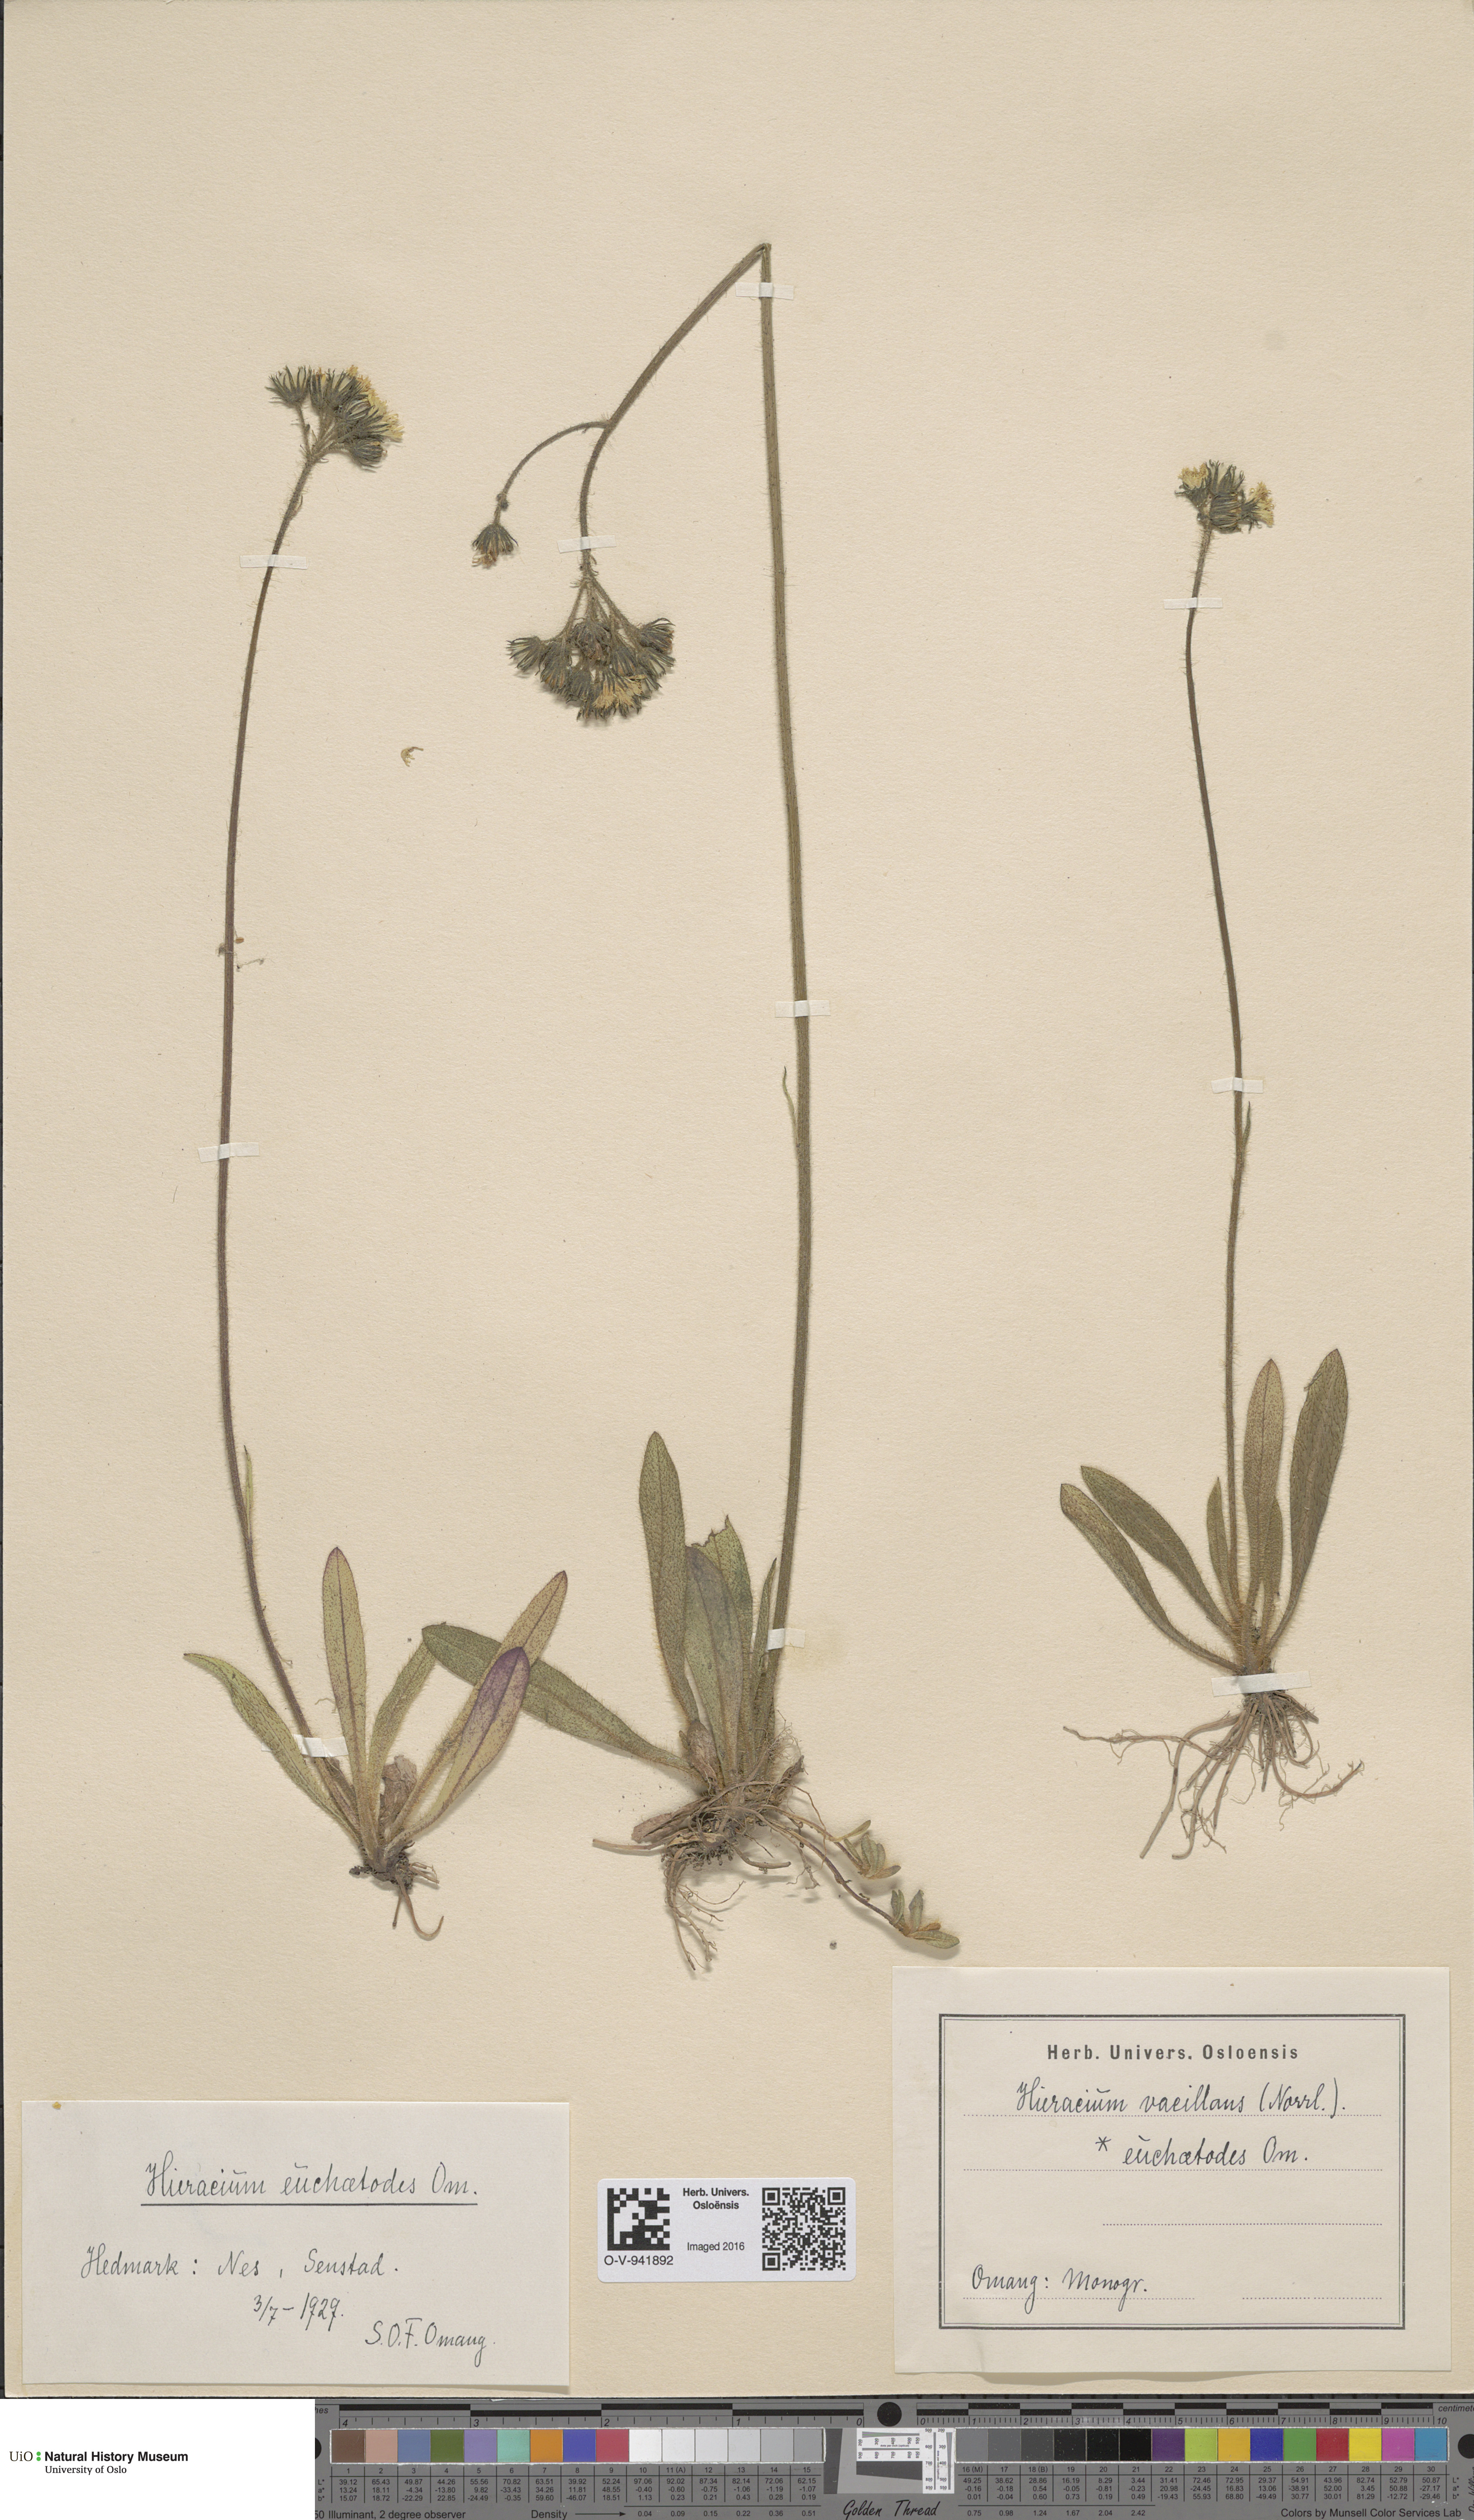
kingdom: Plantae
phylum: Tracheophyta
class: Magnoliopsida
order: Asterales
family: Asteraceae
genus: Pilosella
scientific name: Pilosella glomerata
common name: Queen devil hawkweed
